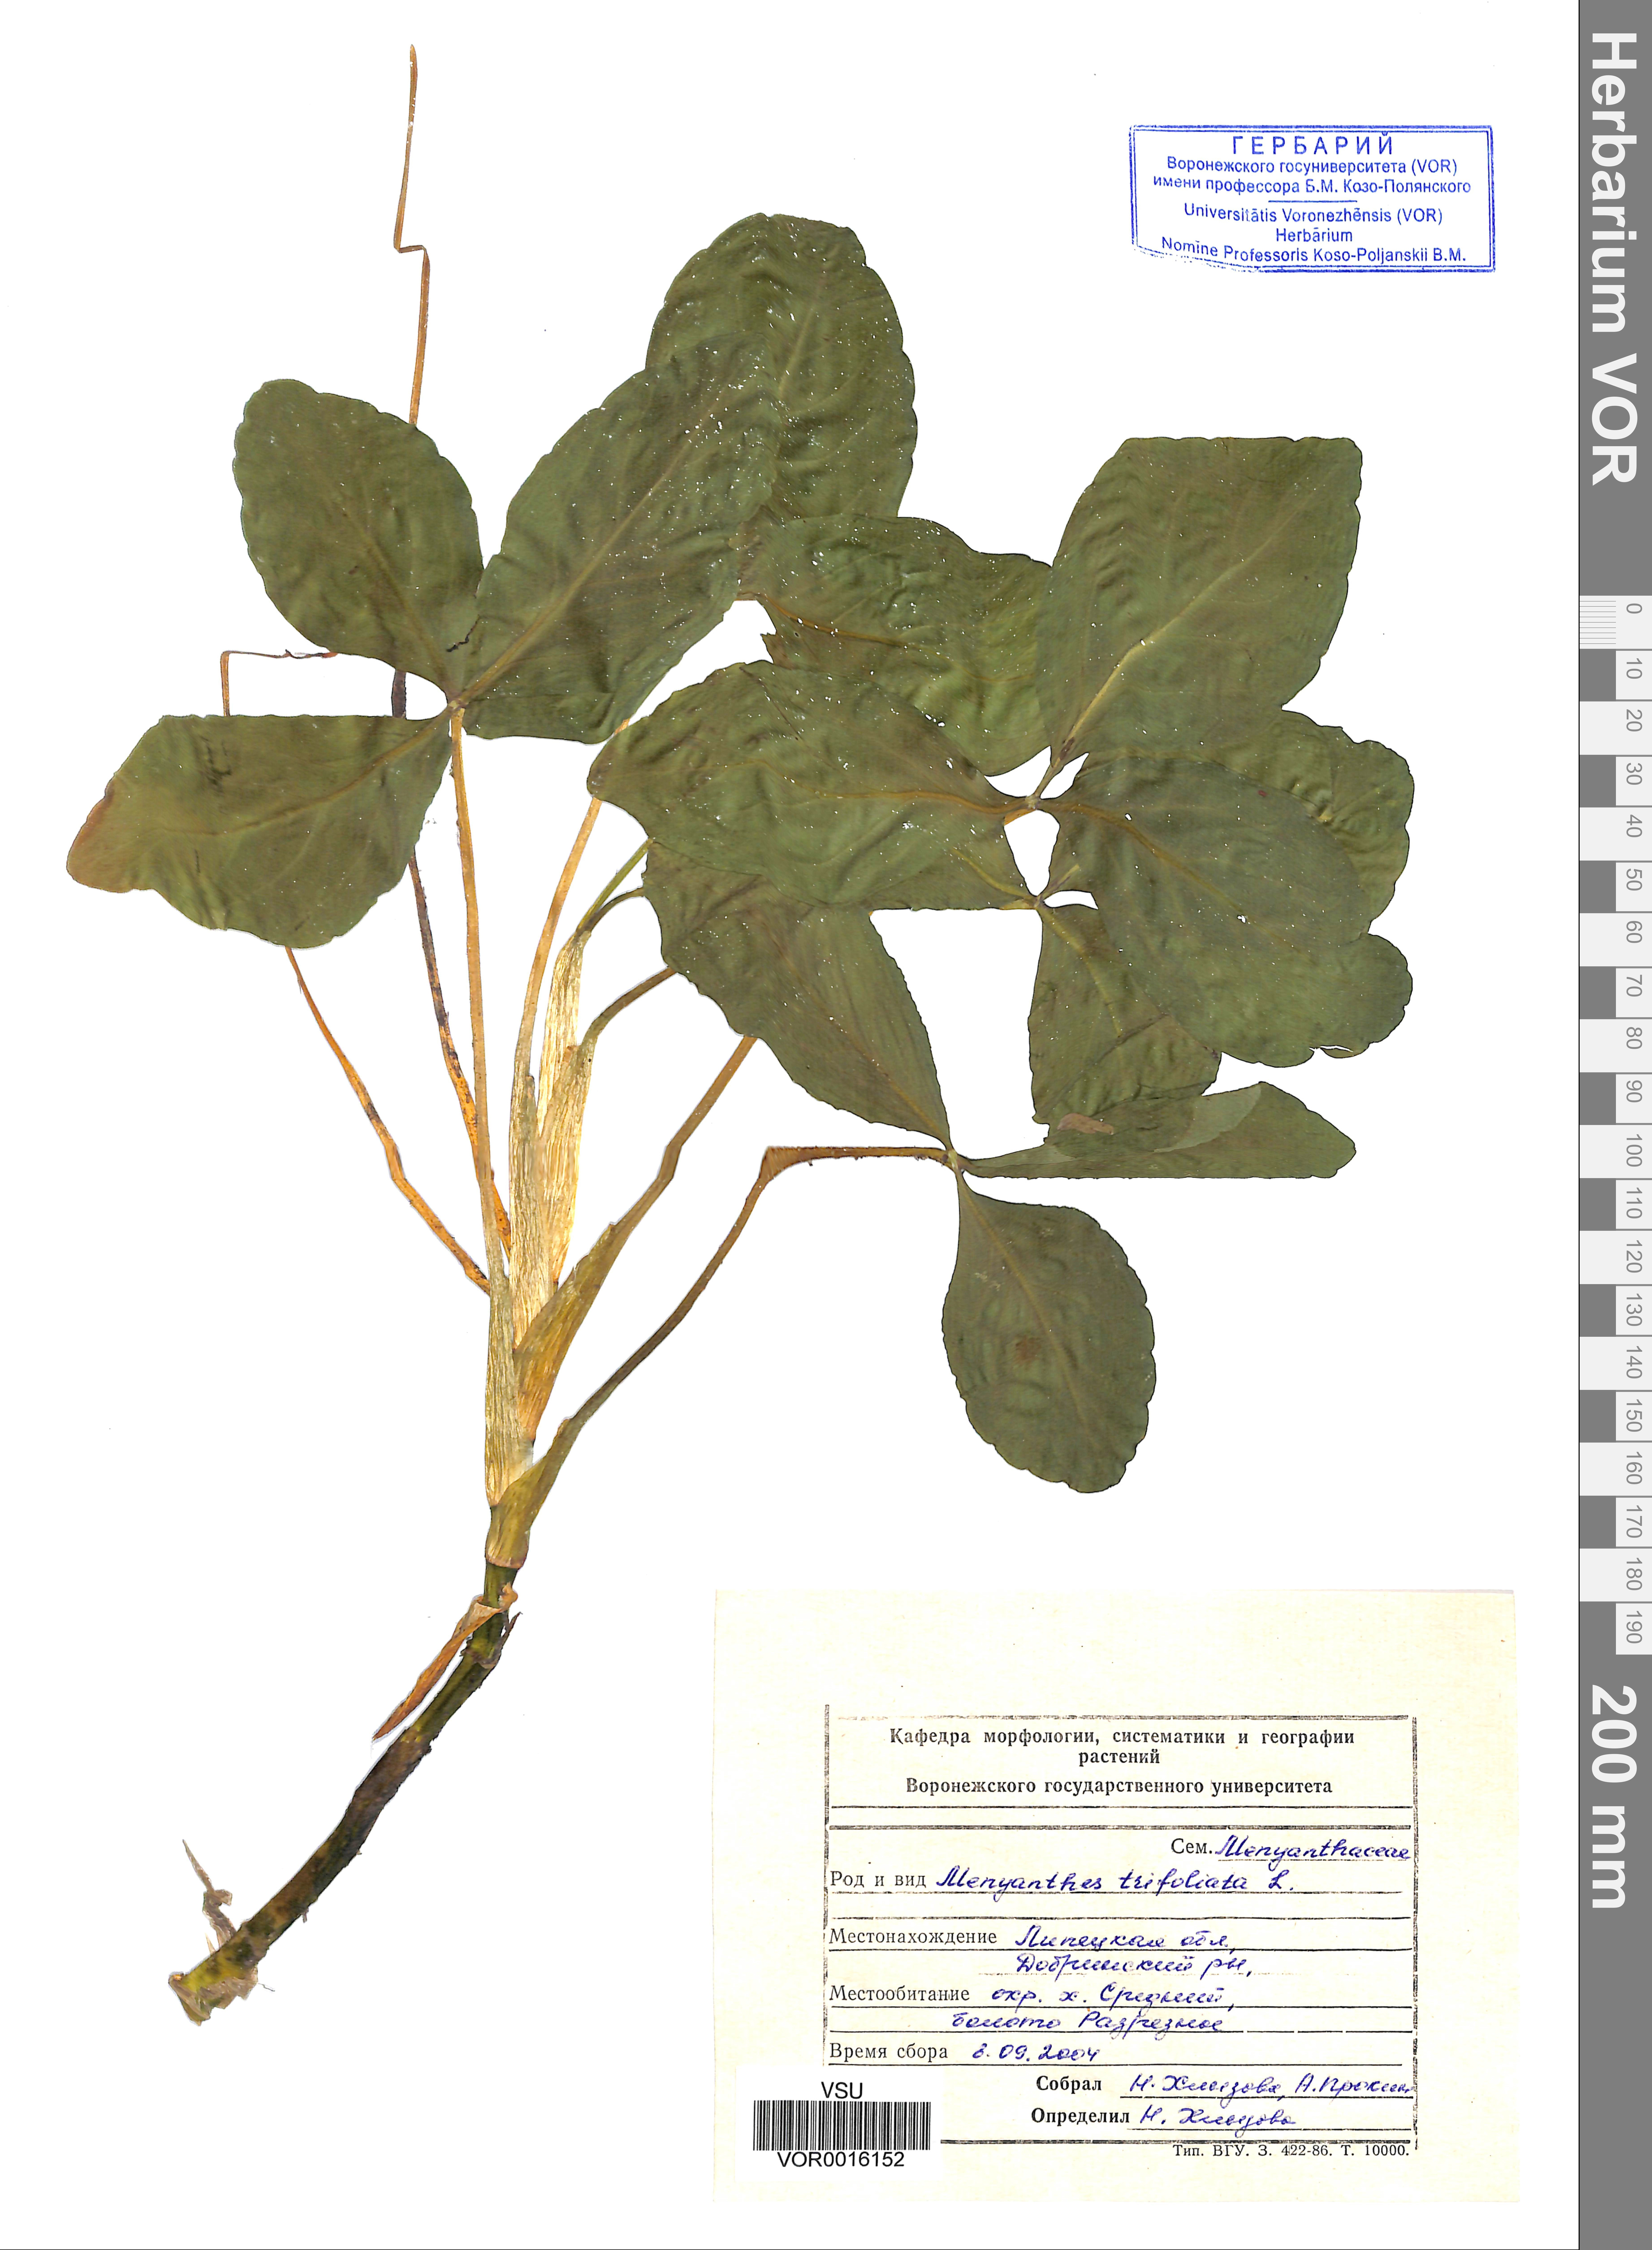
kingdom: Plantae
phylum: Tracheophyta
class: Magnoliopsida
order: Asterales
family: Menyanthaceae
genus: Menyanthes
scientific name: Menyanthes trifoliata
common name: Bogbean
